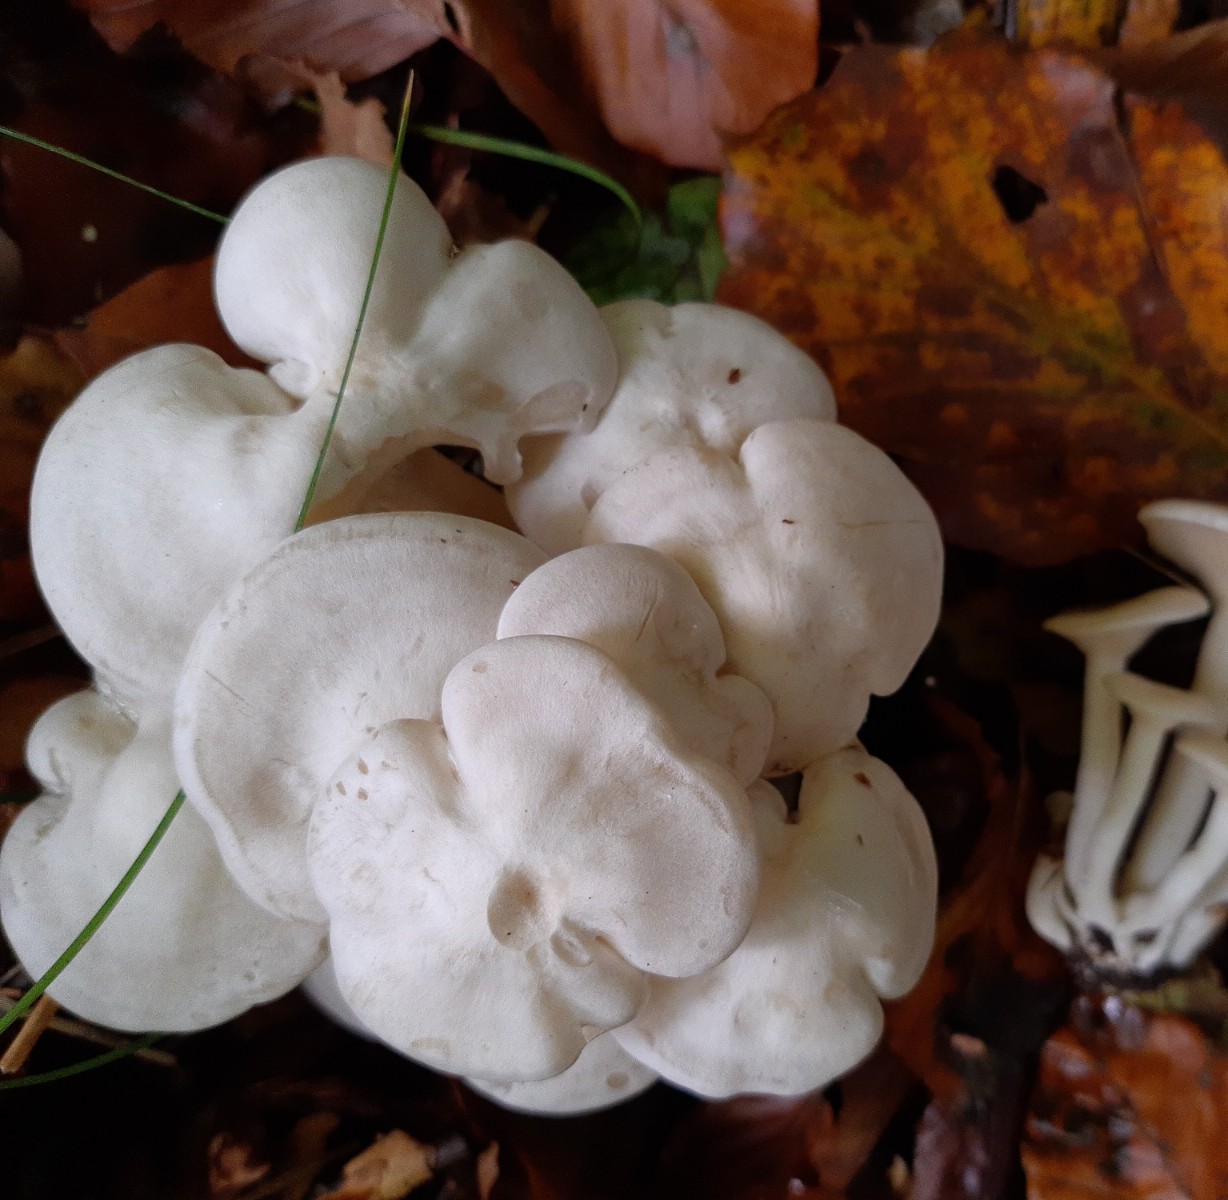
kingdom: Fungi
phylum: Basidiomycota
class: Agaricomycetes
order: Agaricales
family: Tricholomataceae
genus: Leucocybe
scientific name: Leucocybe connata
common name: knippe-tragthat
